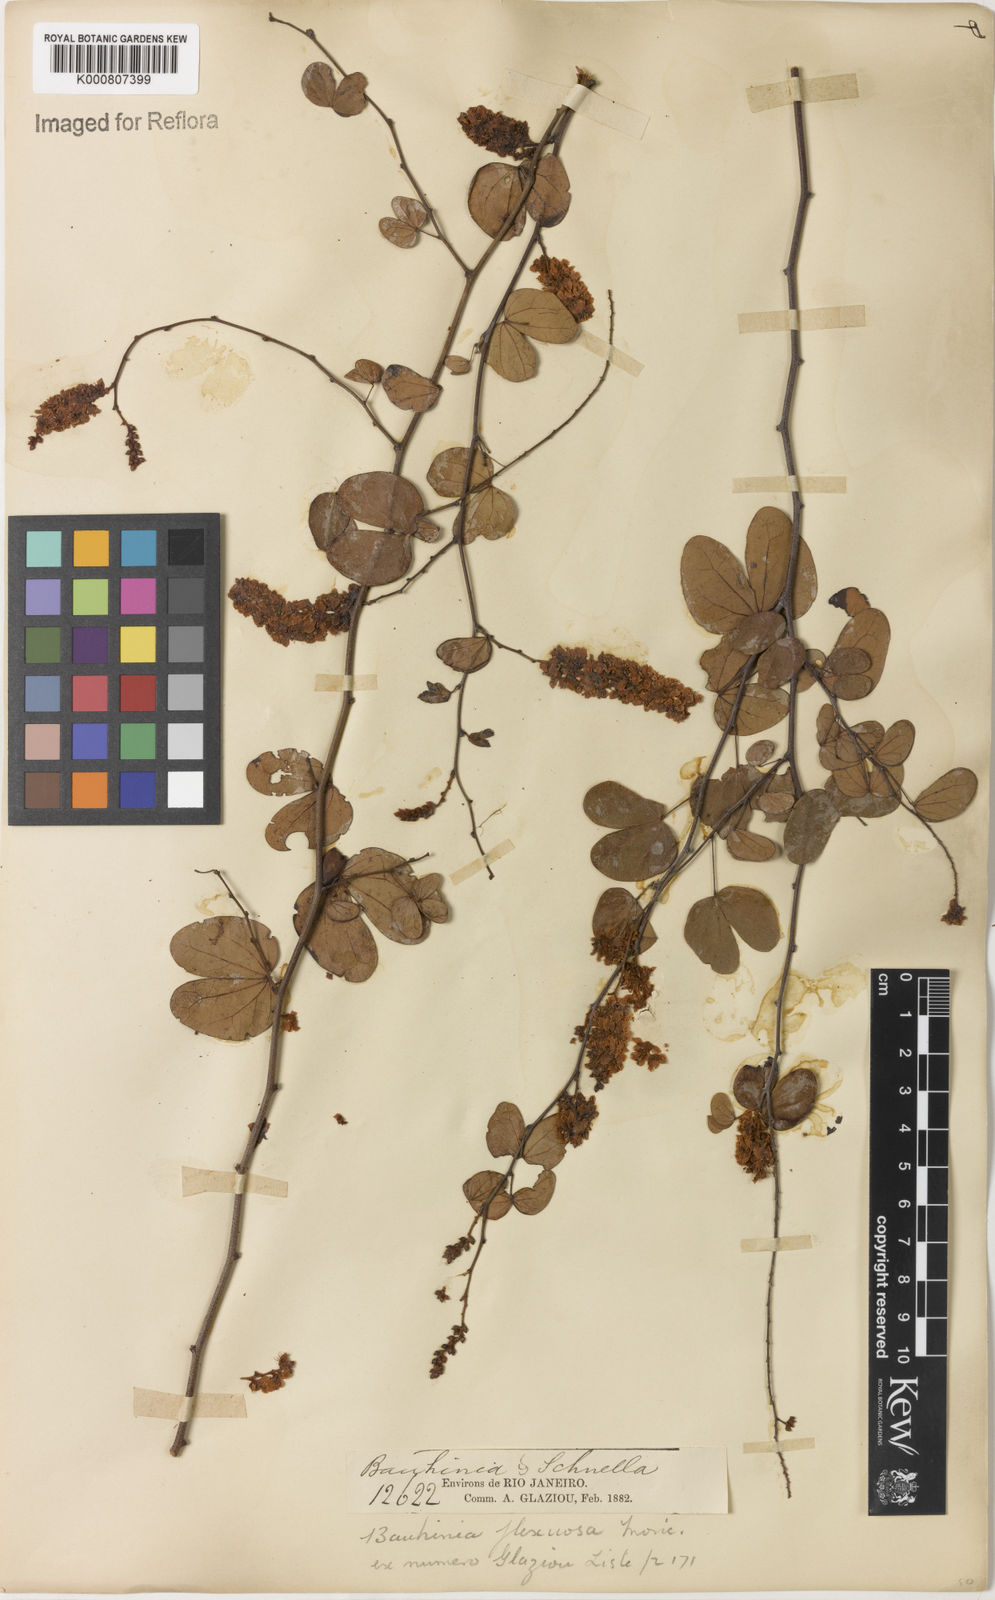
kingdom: Plantae
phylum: Tracheophyta
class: Magnoliopsida
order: Fabales
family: Fabaceae
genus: Schnella
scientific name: Schnella flexuosa
